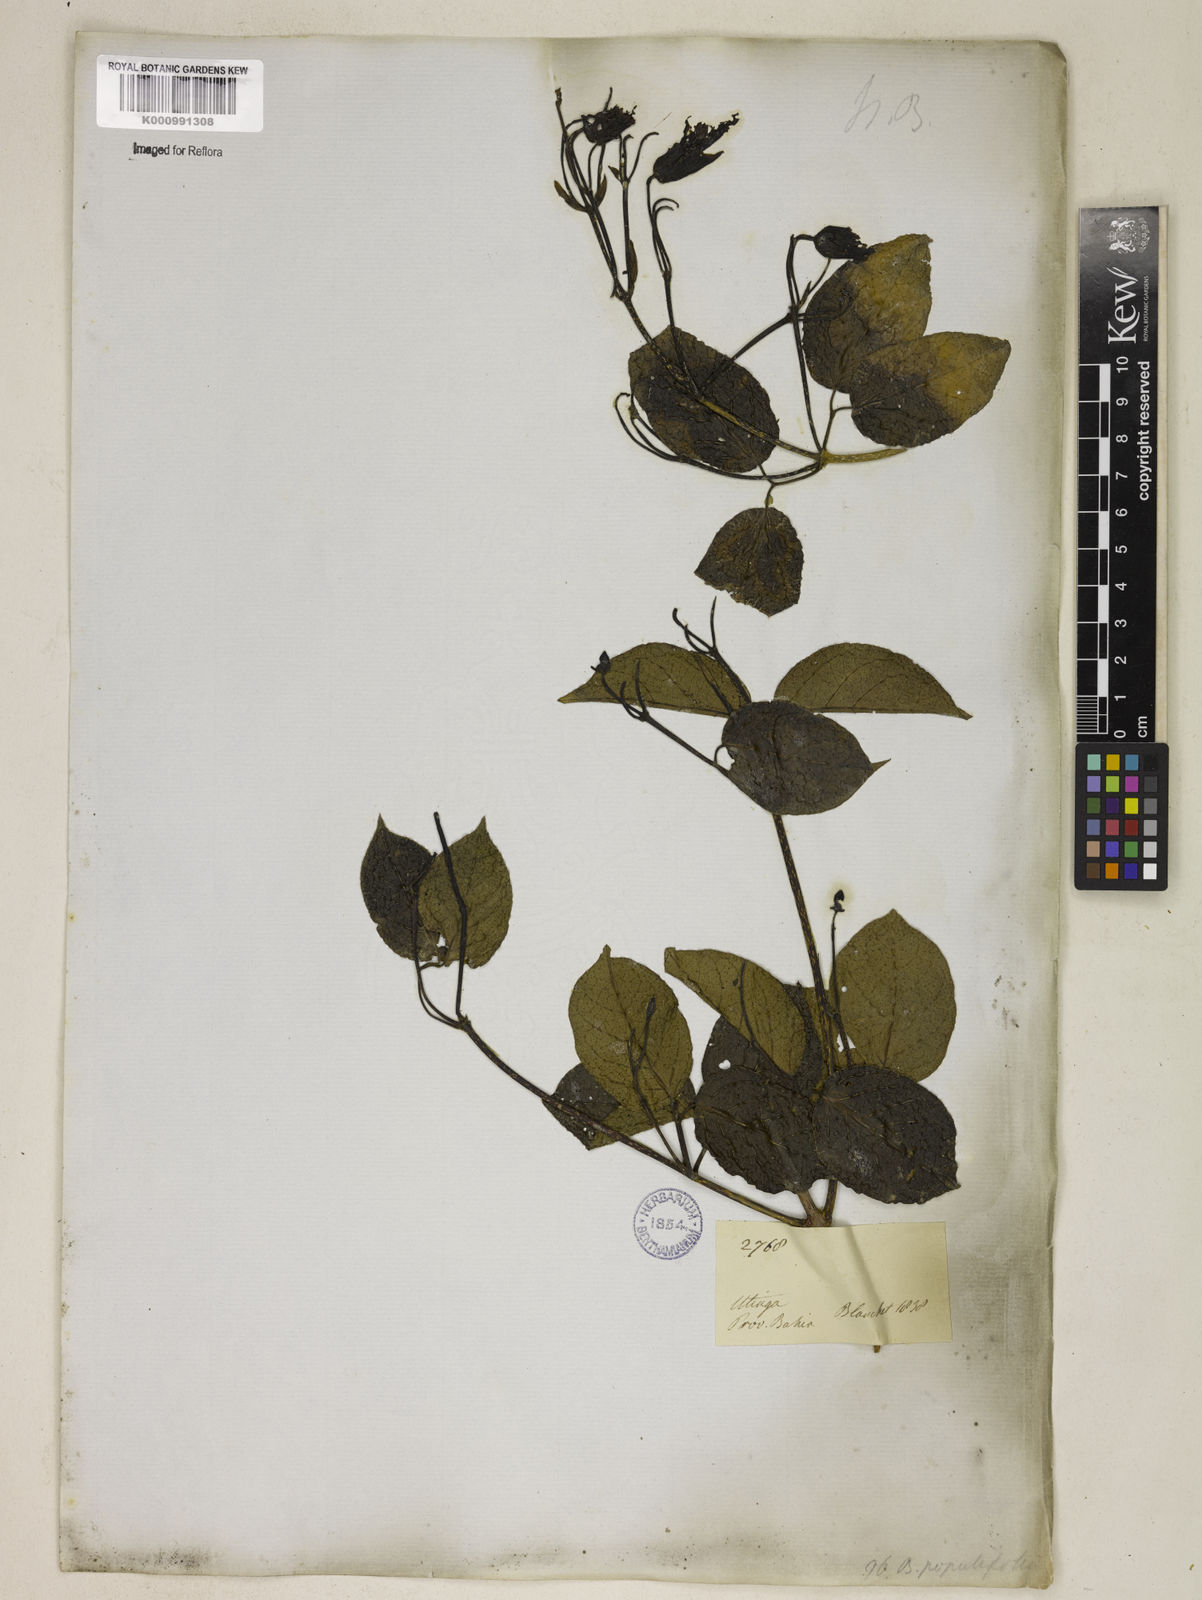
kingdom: Plantae
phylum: Tracheophyta
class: Magnoliopsida
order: Lamiales
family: Bignoniaceae
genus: Dolichandra
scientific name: Dolichandra
